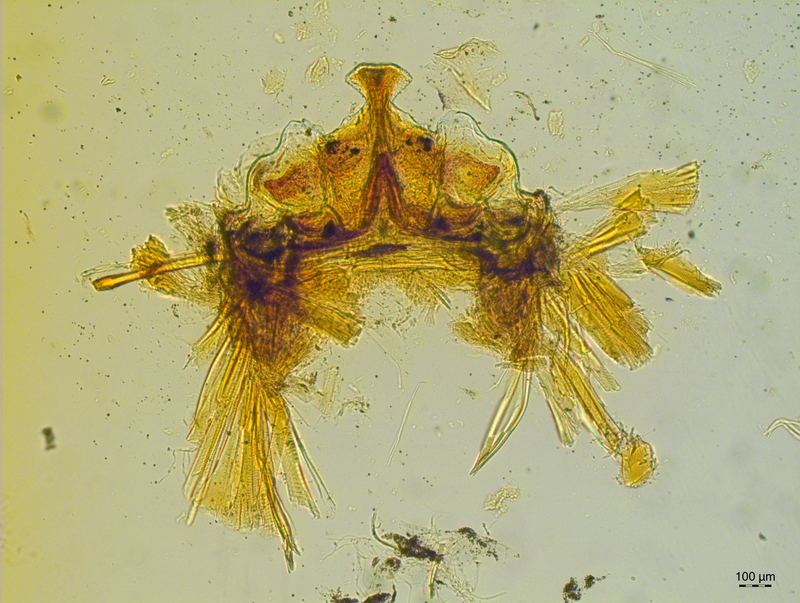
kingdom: Animalia
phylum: Arthropoda
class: Diplopoda
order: Chordeumatida
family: Craspedosomatidae
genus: Craspedosoma
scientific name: Craspedosoma slavum
